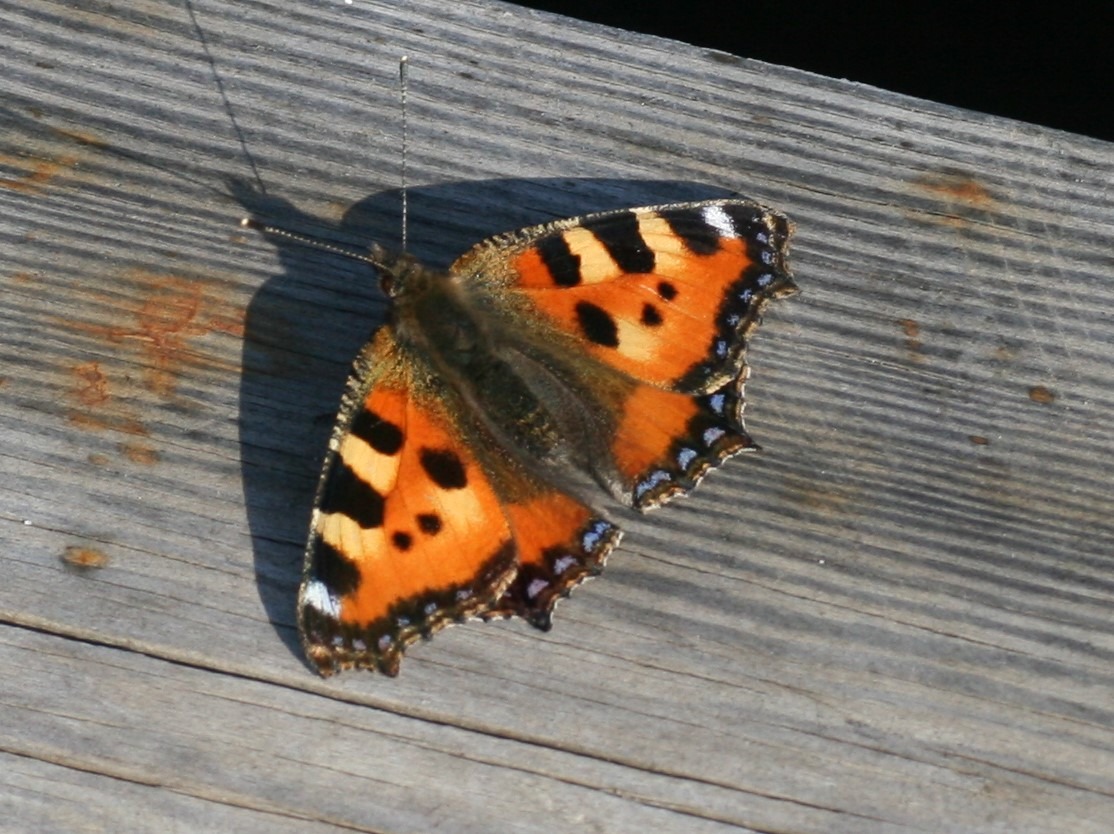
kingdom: Animalia
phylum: Arthropoda
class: Insecta
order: Lepidoptera
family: Nymphalidae
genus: Aglais
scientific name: Aglais urticae
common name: Nældens takvinge
